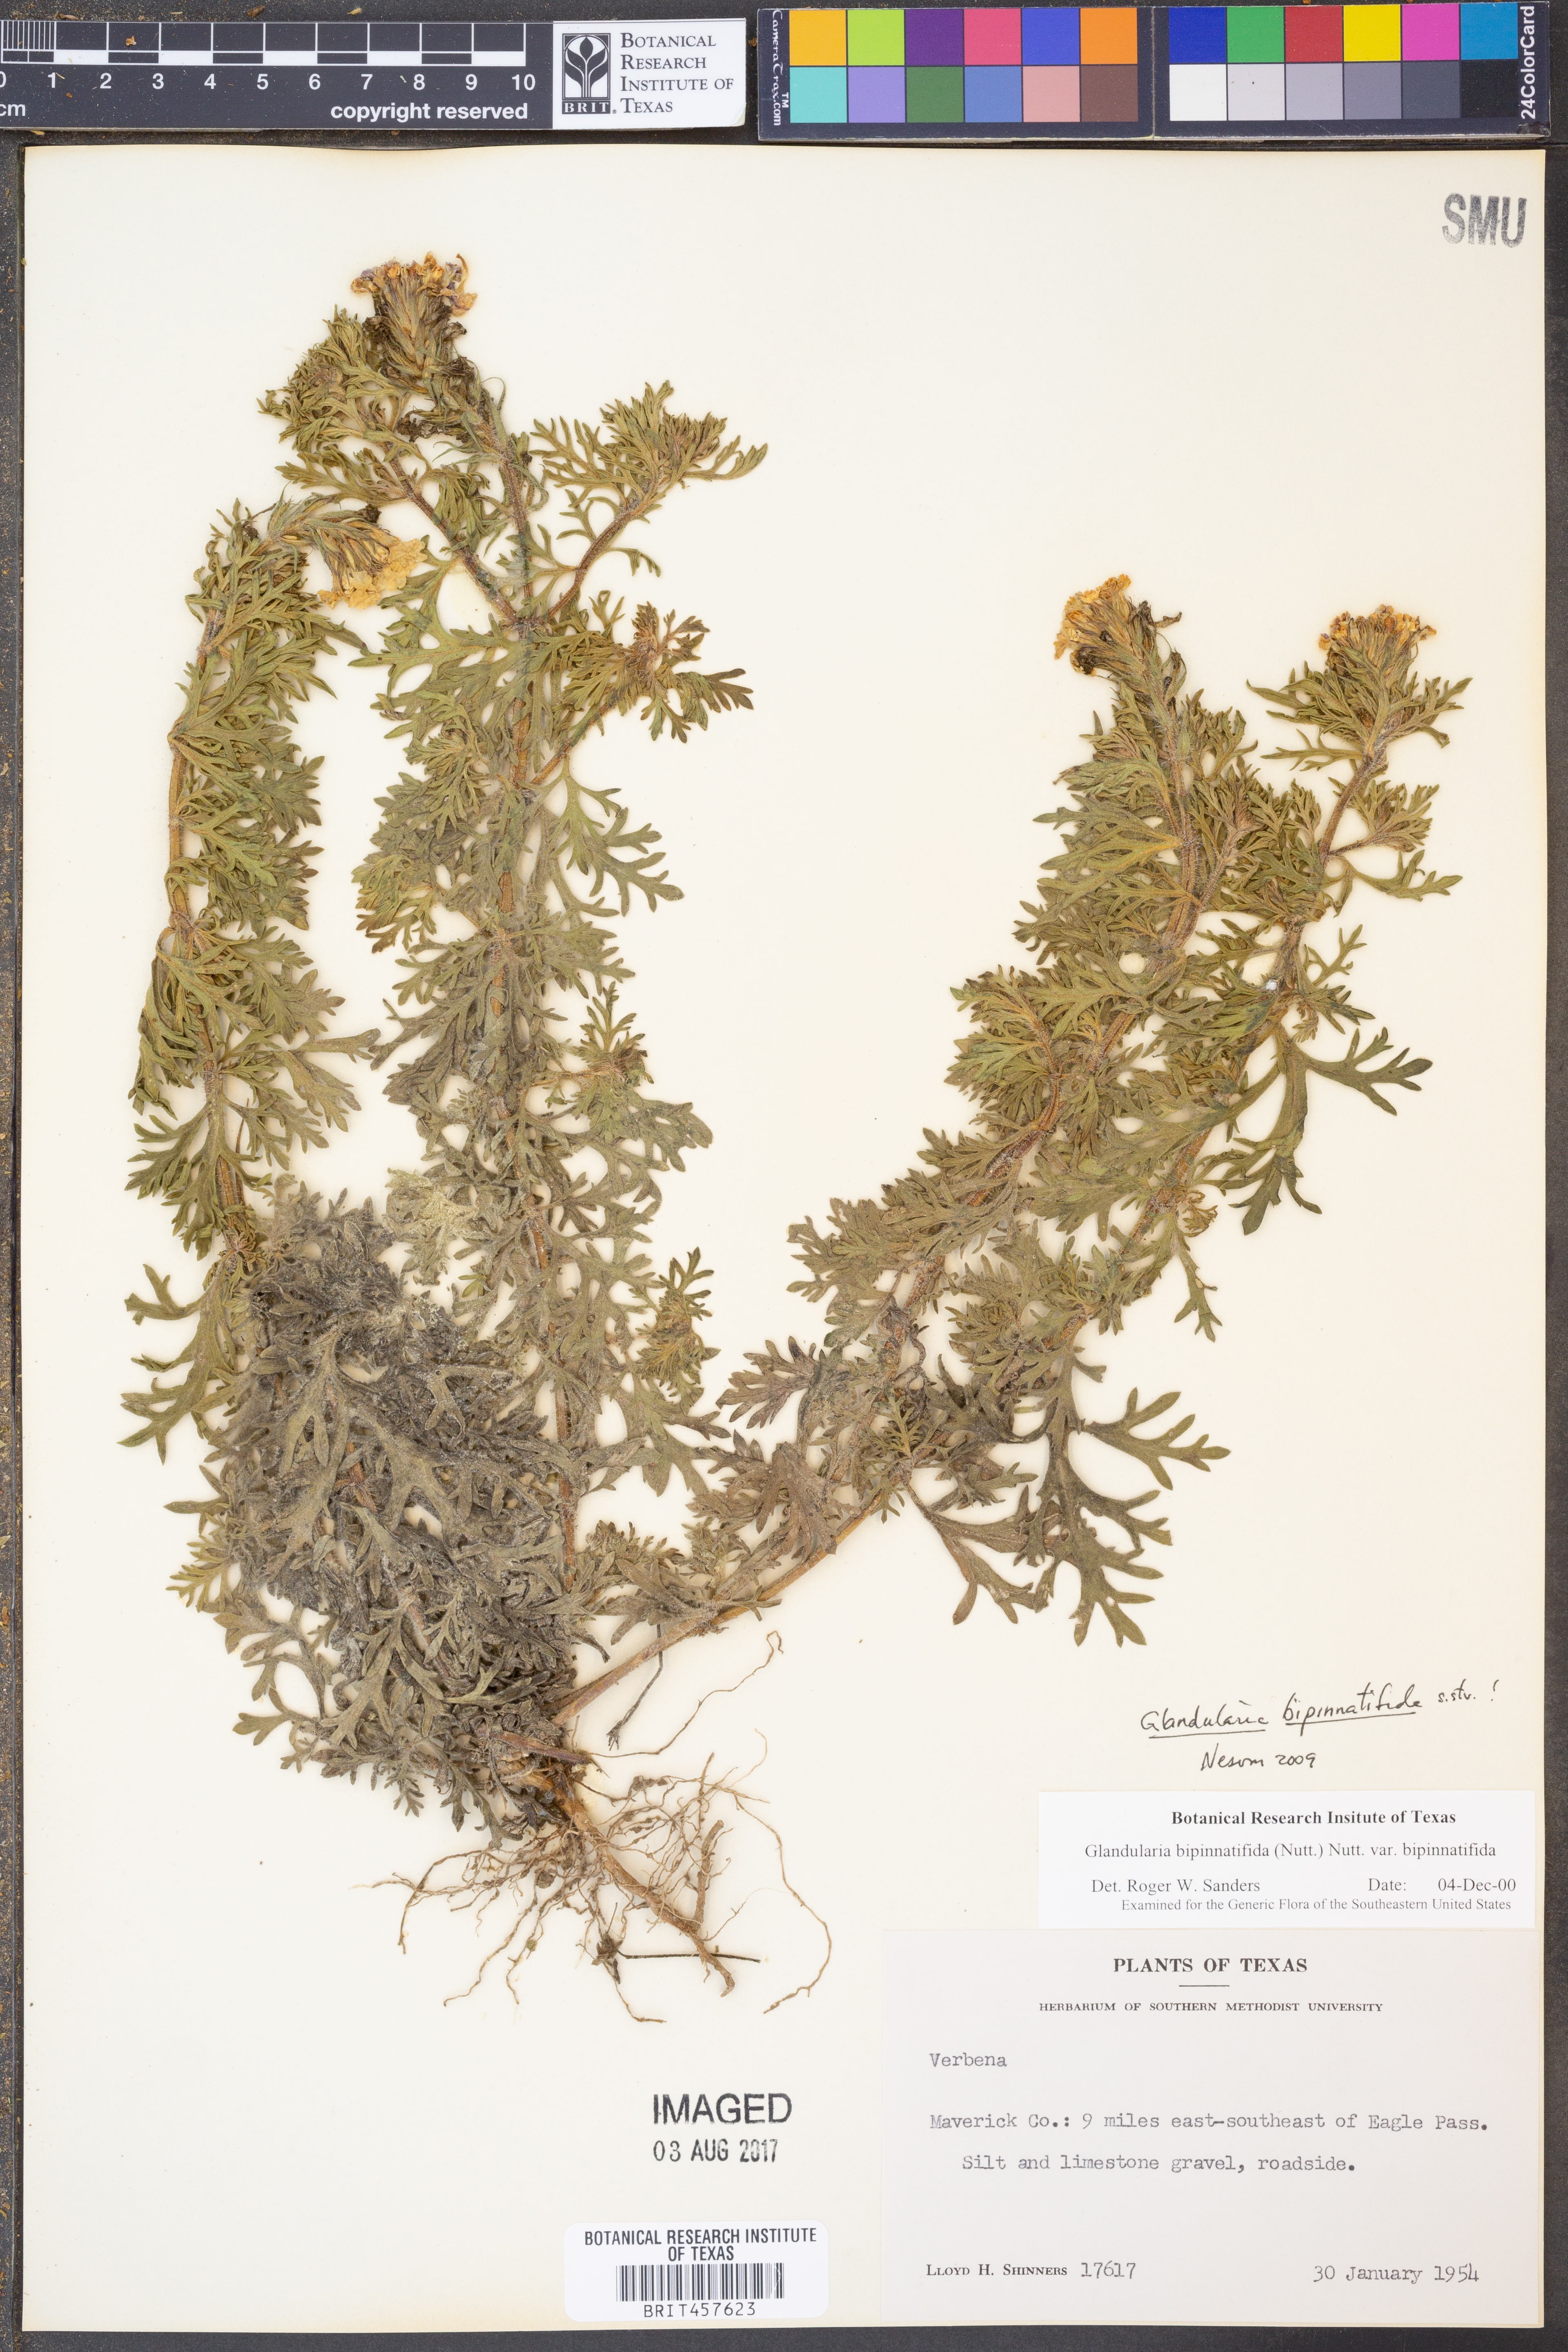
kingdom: Plantae
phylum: Tracheophyta
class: Magnoliopsida
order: Lamiales
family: Verbenaceae
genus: Verbena
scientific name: Verbena bipinnatifida
